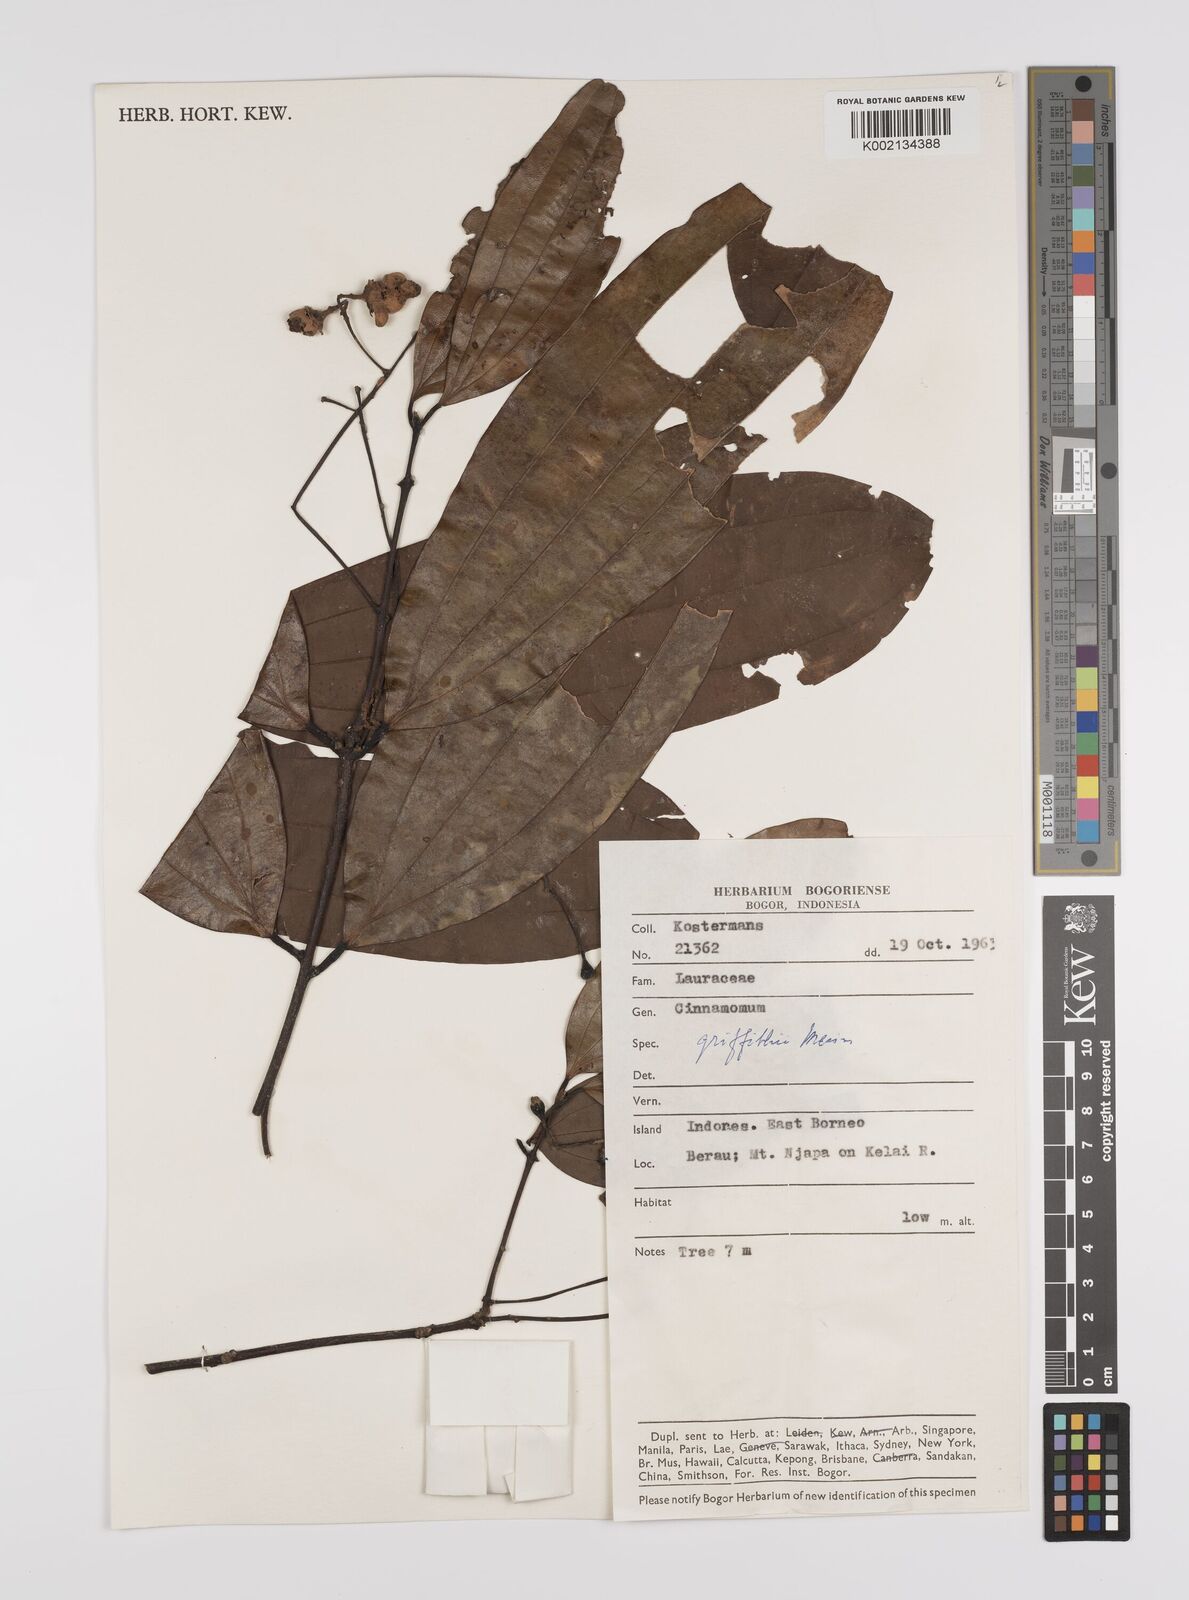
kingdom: Plantae
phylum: Tracheophyta
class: Magnoliopsida
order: Laurales
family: Lauraceae
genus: Cinnamomum
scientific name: Cinnamomum iners
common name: Wild cinnamon
